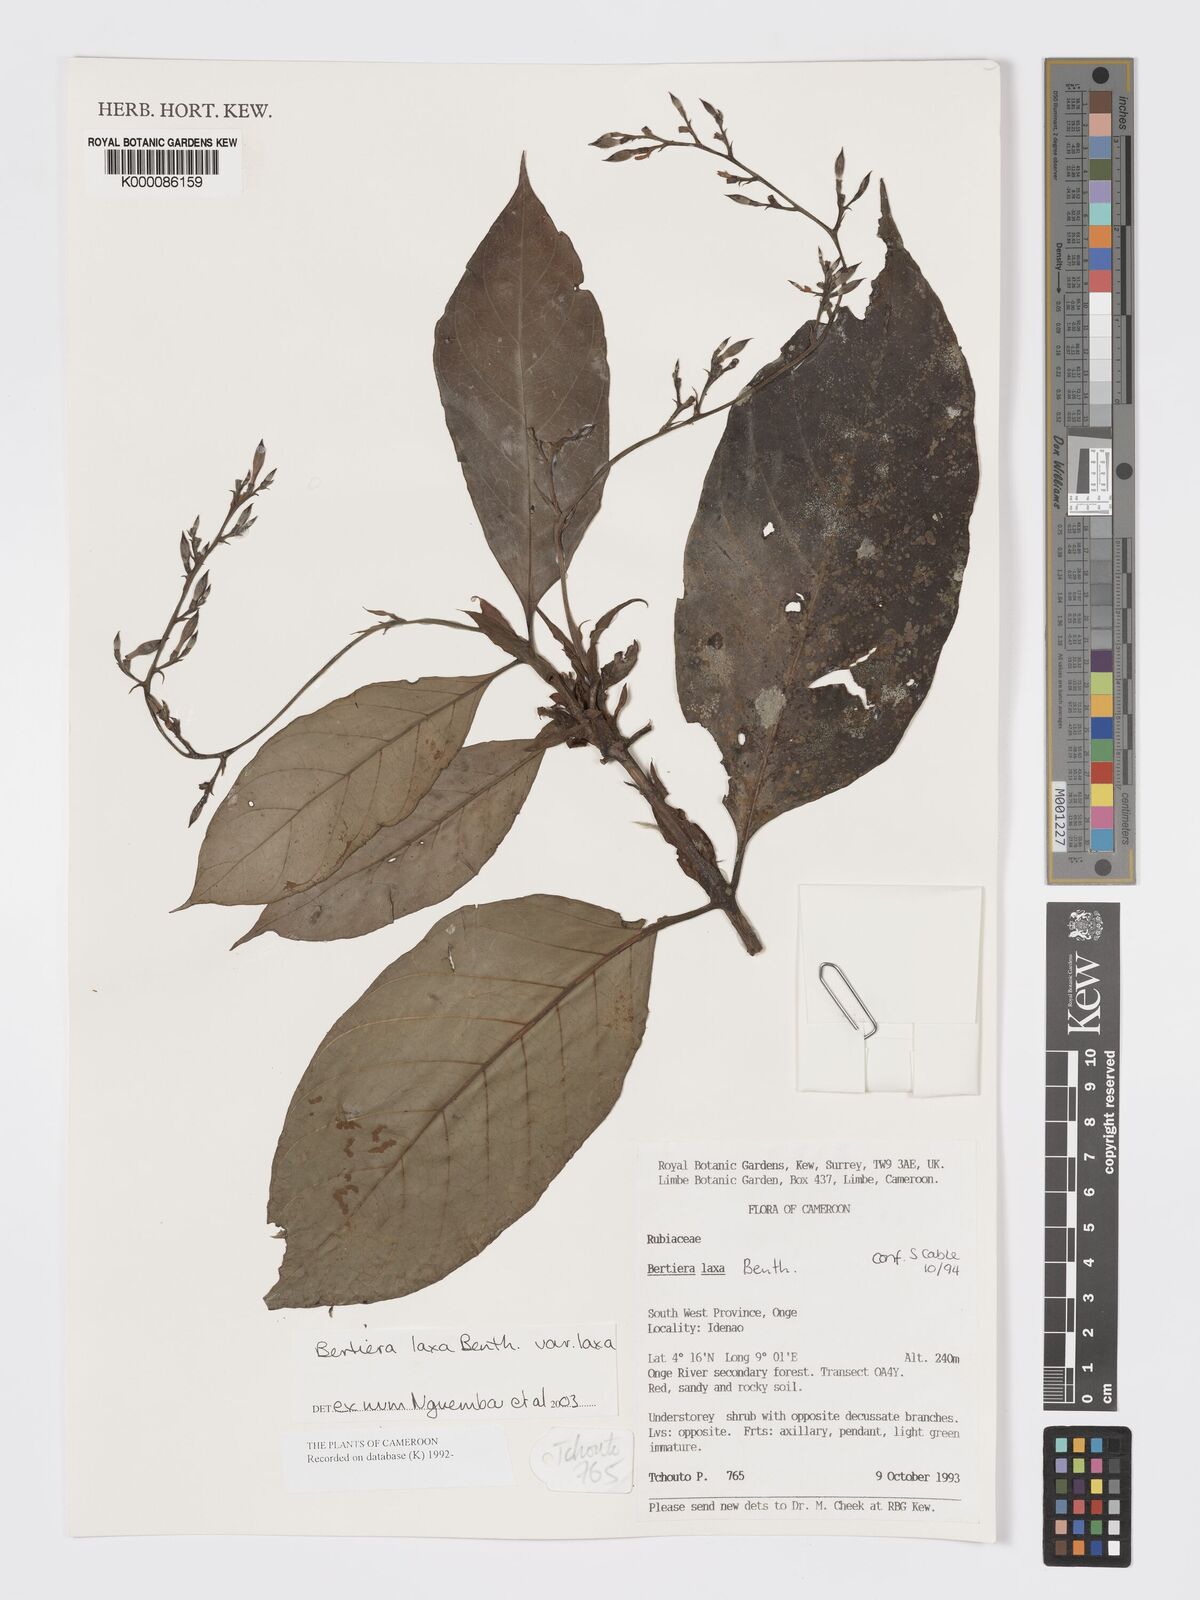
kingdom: Plantae
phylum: Tracheophyta
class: Magnoliopsida
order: Gentianales
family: Rubiaceae
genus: Bertiera
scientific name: Bertiera laxa
